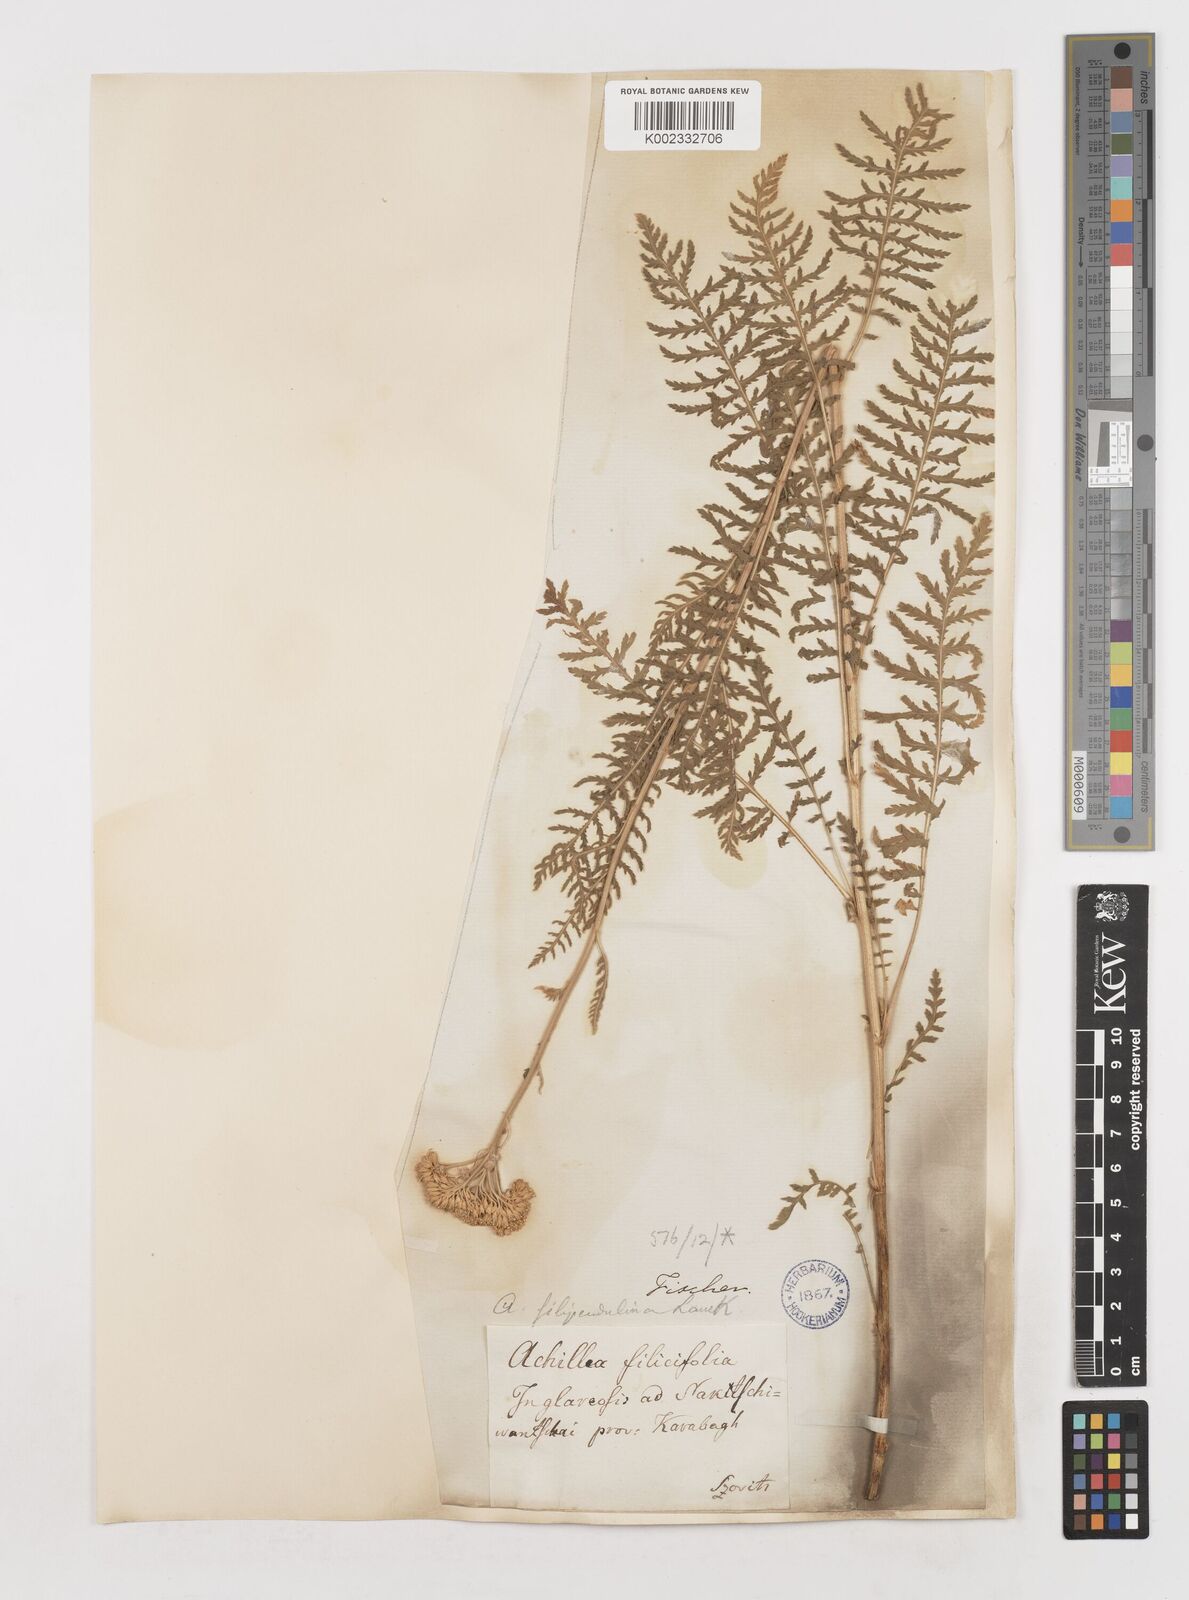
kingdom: Plantae
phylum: Tracheophyta
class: Magnoliopsida
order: Asterales
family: Asteraceae
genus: Achillea
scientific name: Achillea filipendulina
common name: Fernleaf yarrow
